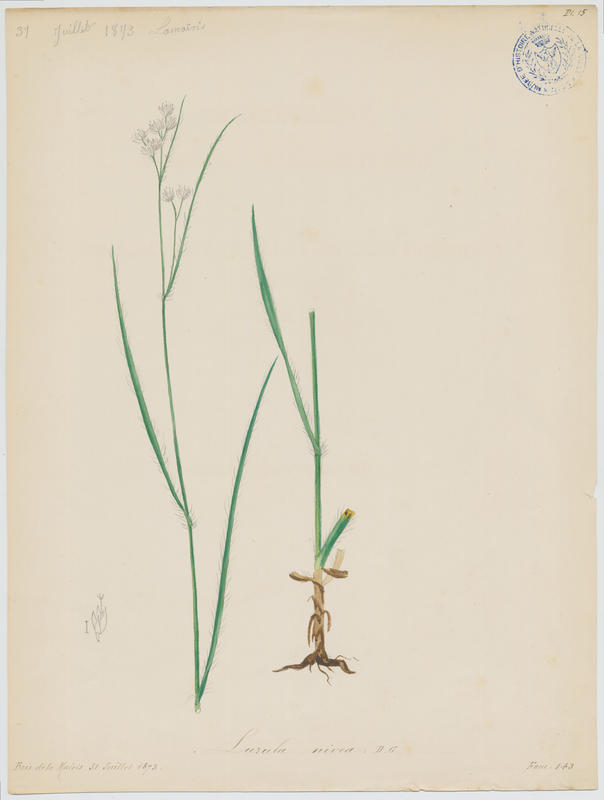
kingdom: Plantae
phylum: Tracheophyta
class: Liliopsida
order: Poales
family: Juncaceae
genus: Luzula
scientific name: Luzula nivea
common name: Snow-white wood-rush
